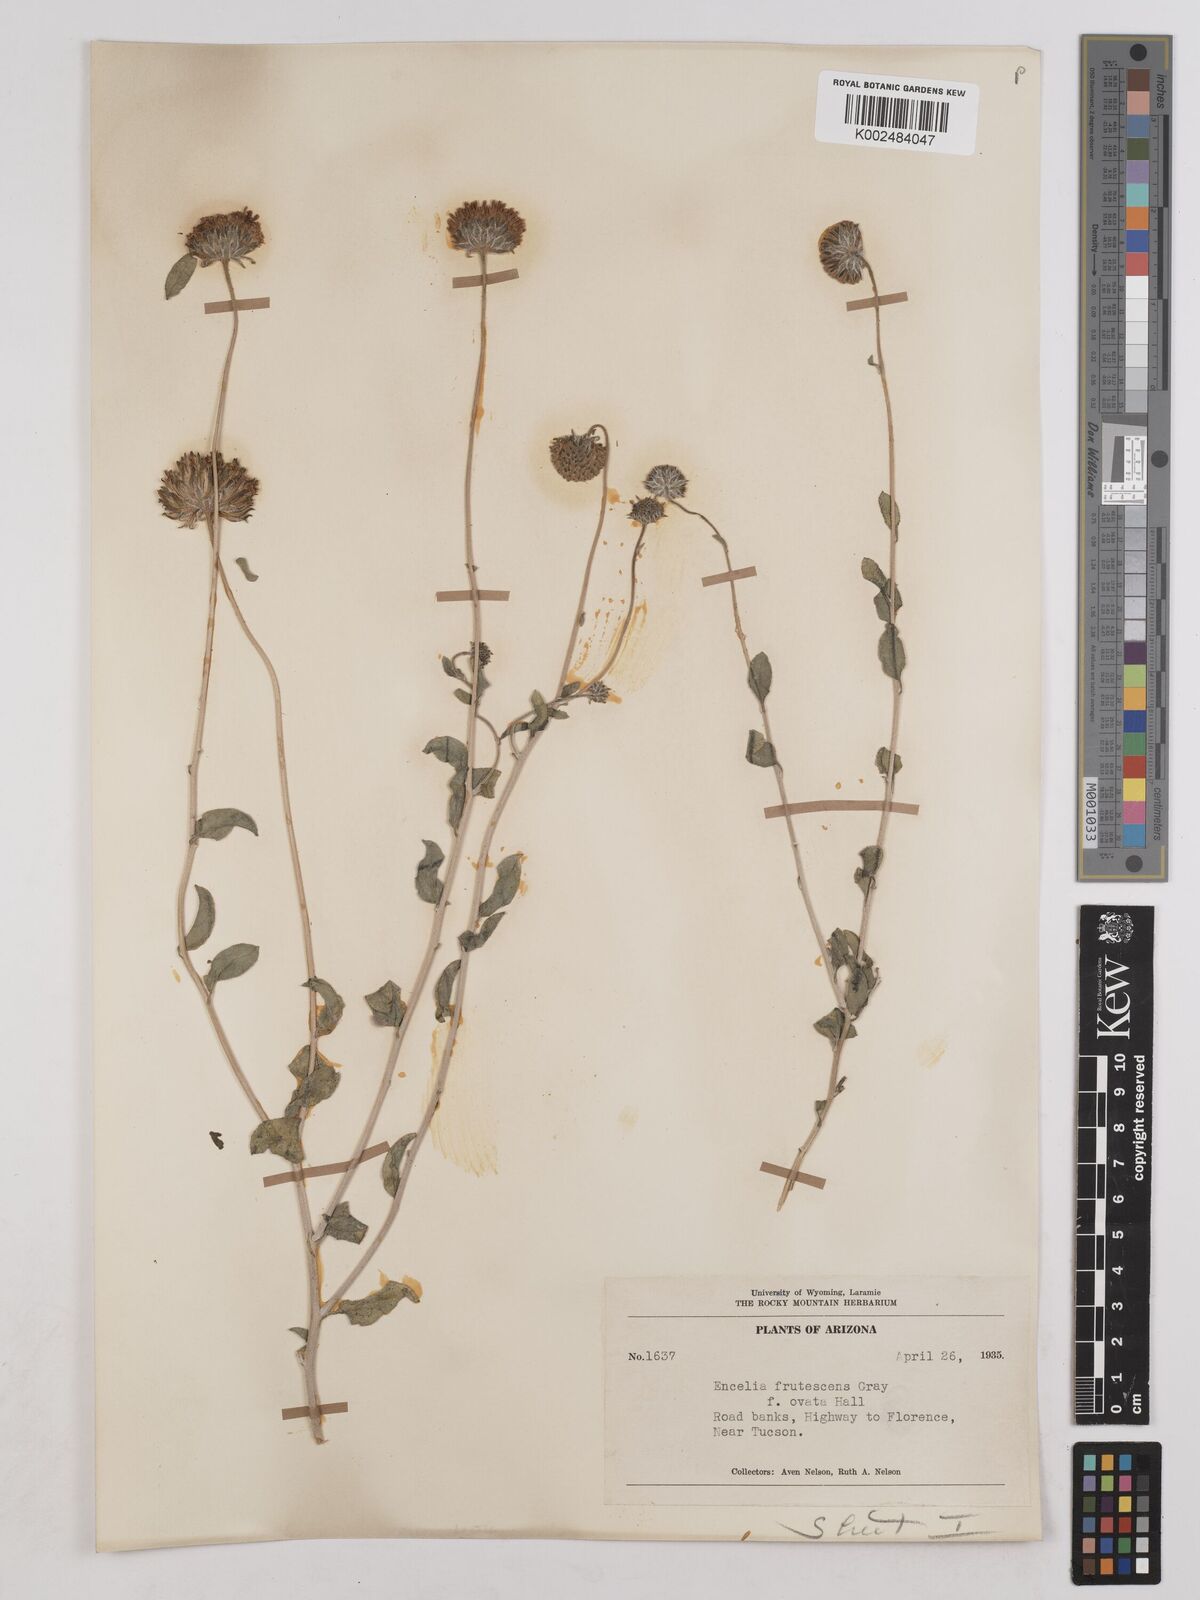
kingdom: Plantae
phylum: Tracheophyta
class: Magnoliopsida
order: Asterales
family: Asteraceae
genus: Encelia
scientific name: Encelia frutescens
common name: Bush encelia
